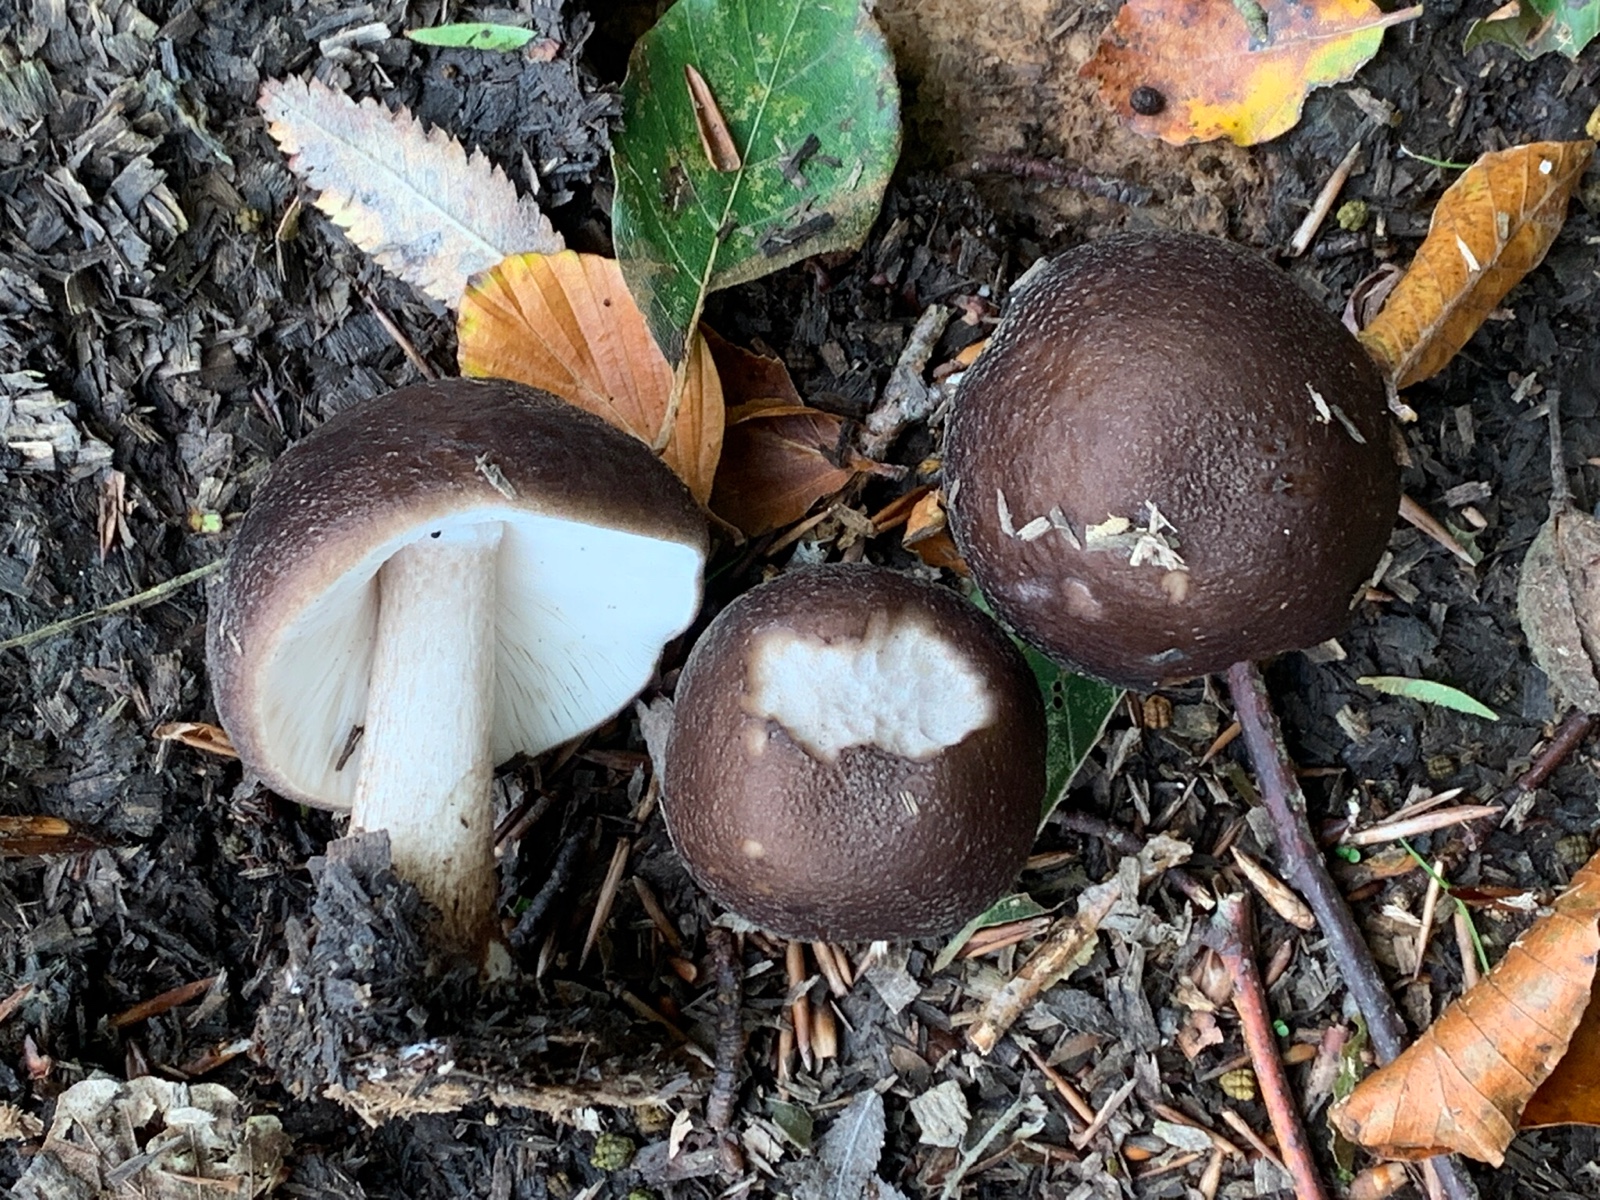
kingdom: Fungi
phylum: Basidiomycota
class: Agaricomycetes
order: Agaricales
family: Pluteaceae
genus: Pluteus
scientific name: Pluteus cervinus
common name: sodfarvet skærmhat
